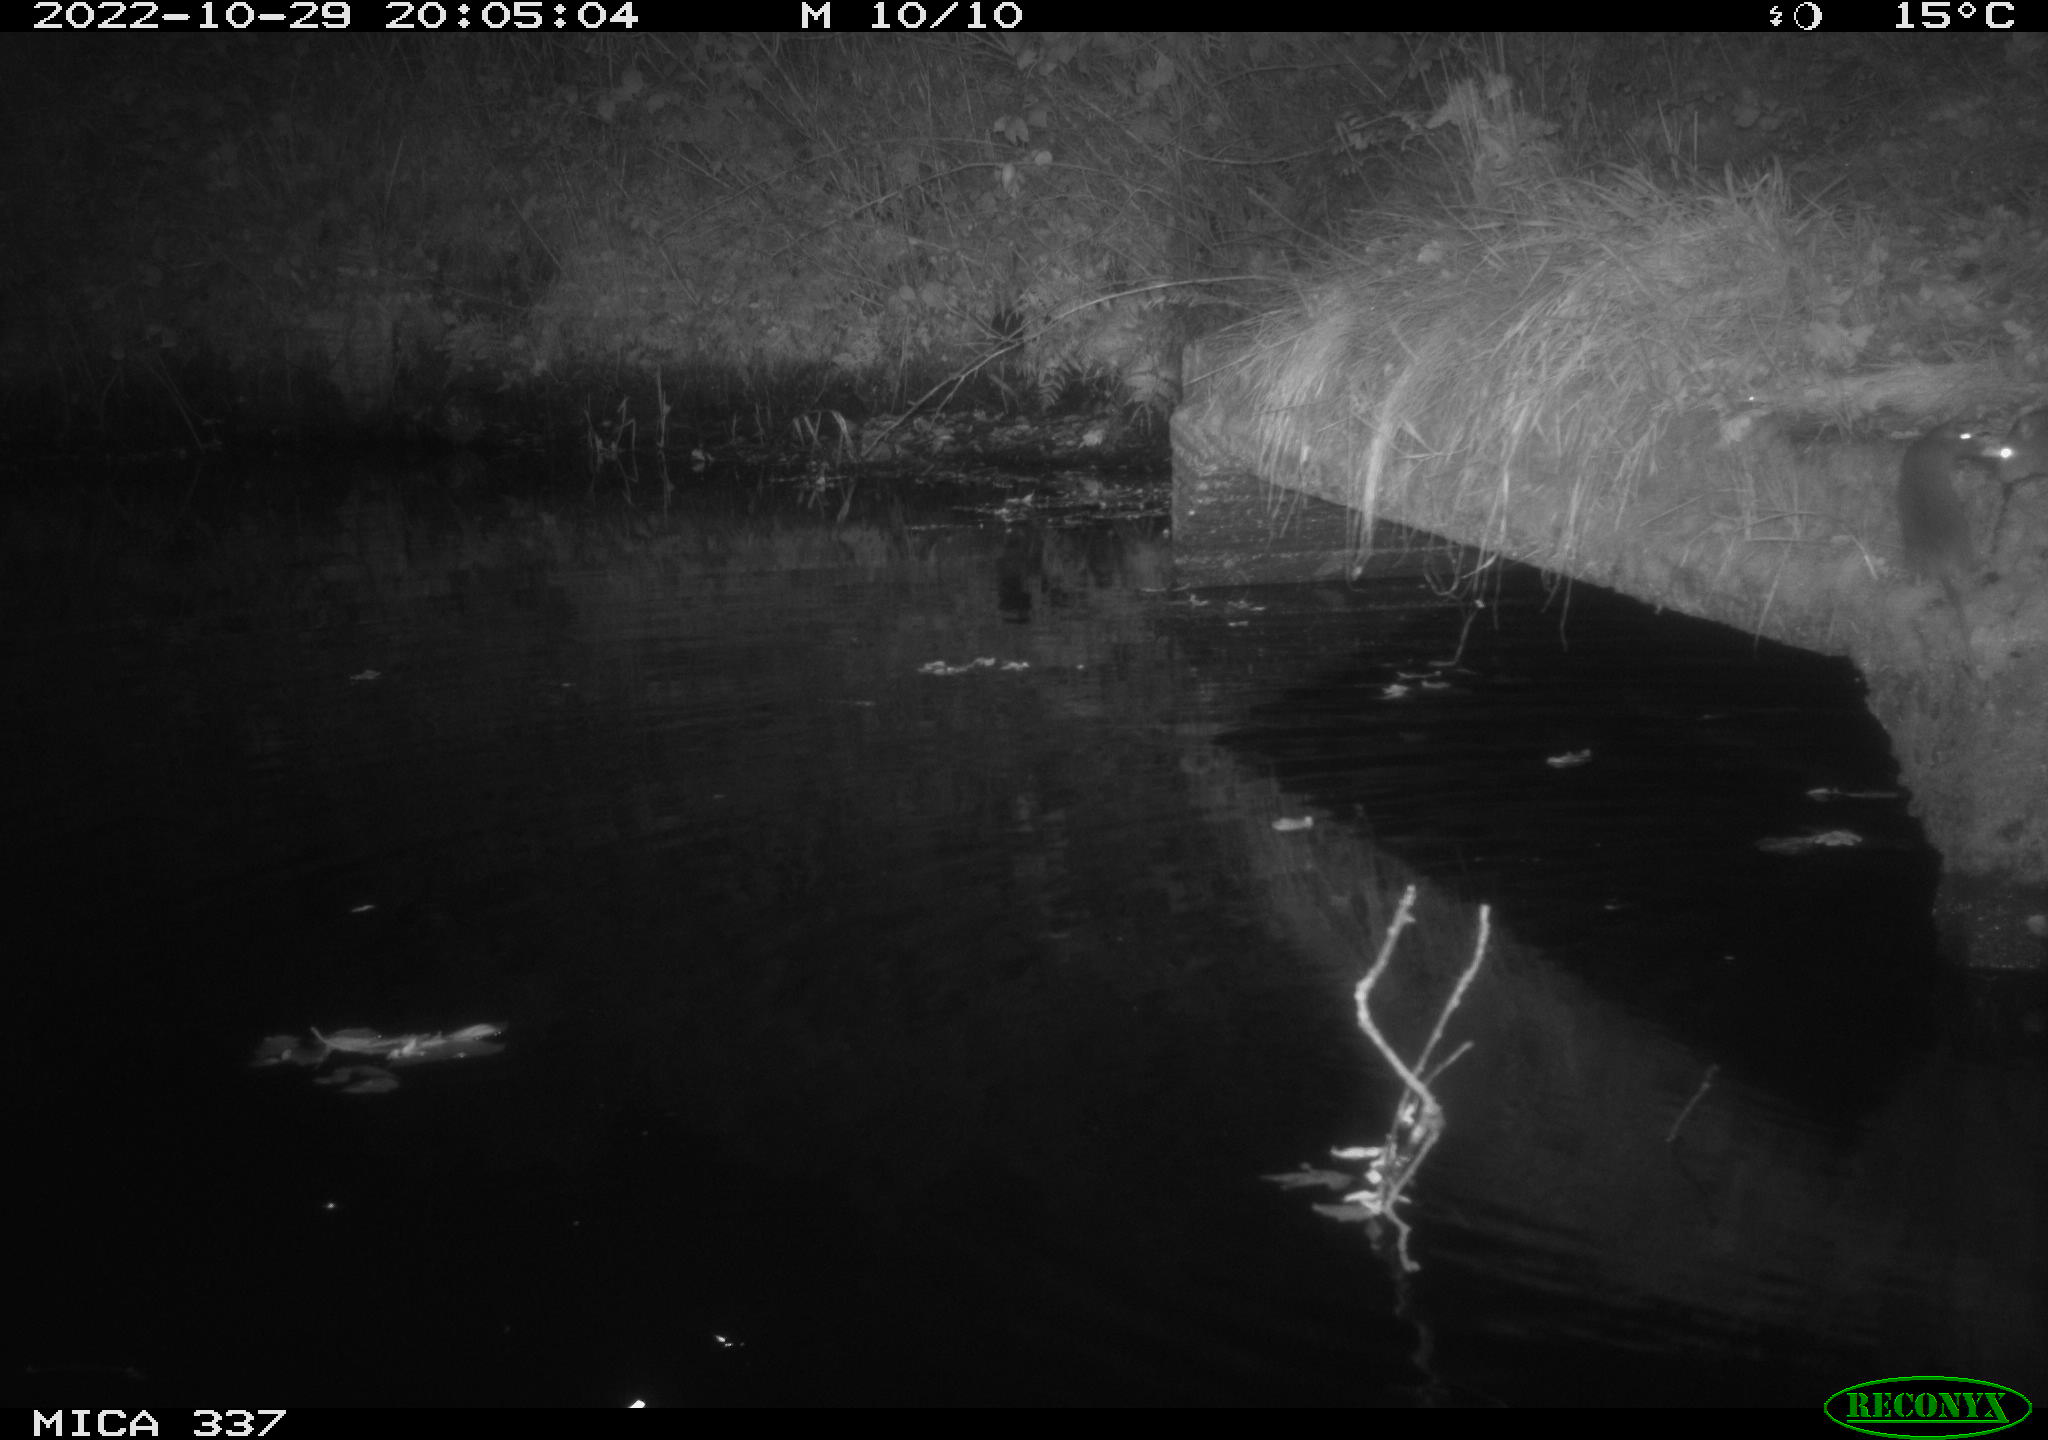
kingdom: Animalia
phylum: Chordata
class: Mammalia
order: Rodentia
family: Muridae
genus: Rattus
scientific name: Rattus norvegicus
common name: Brown rat
